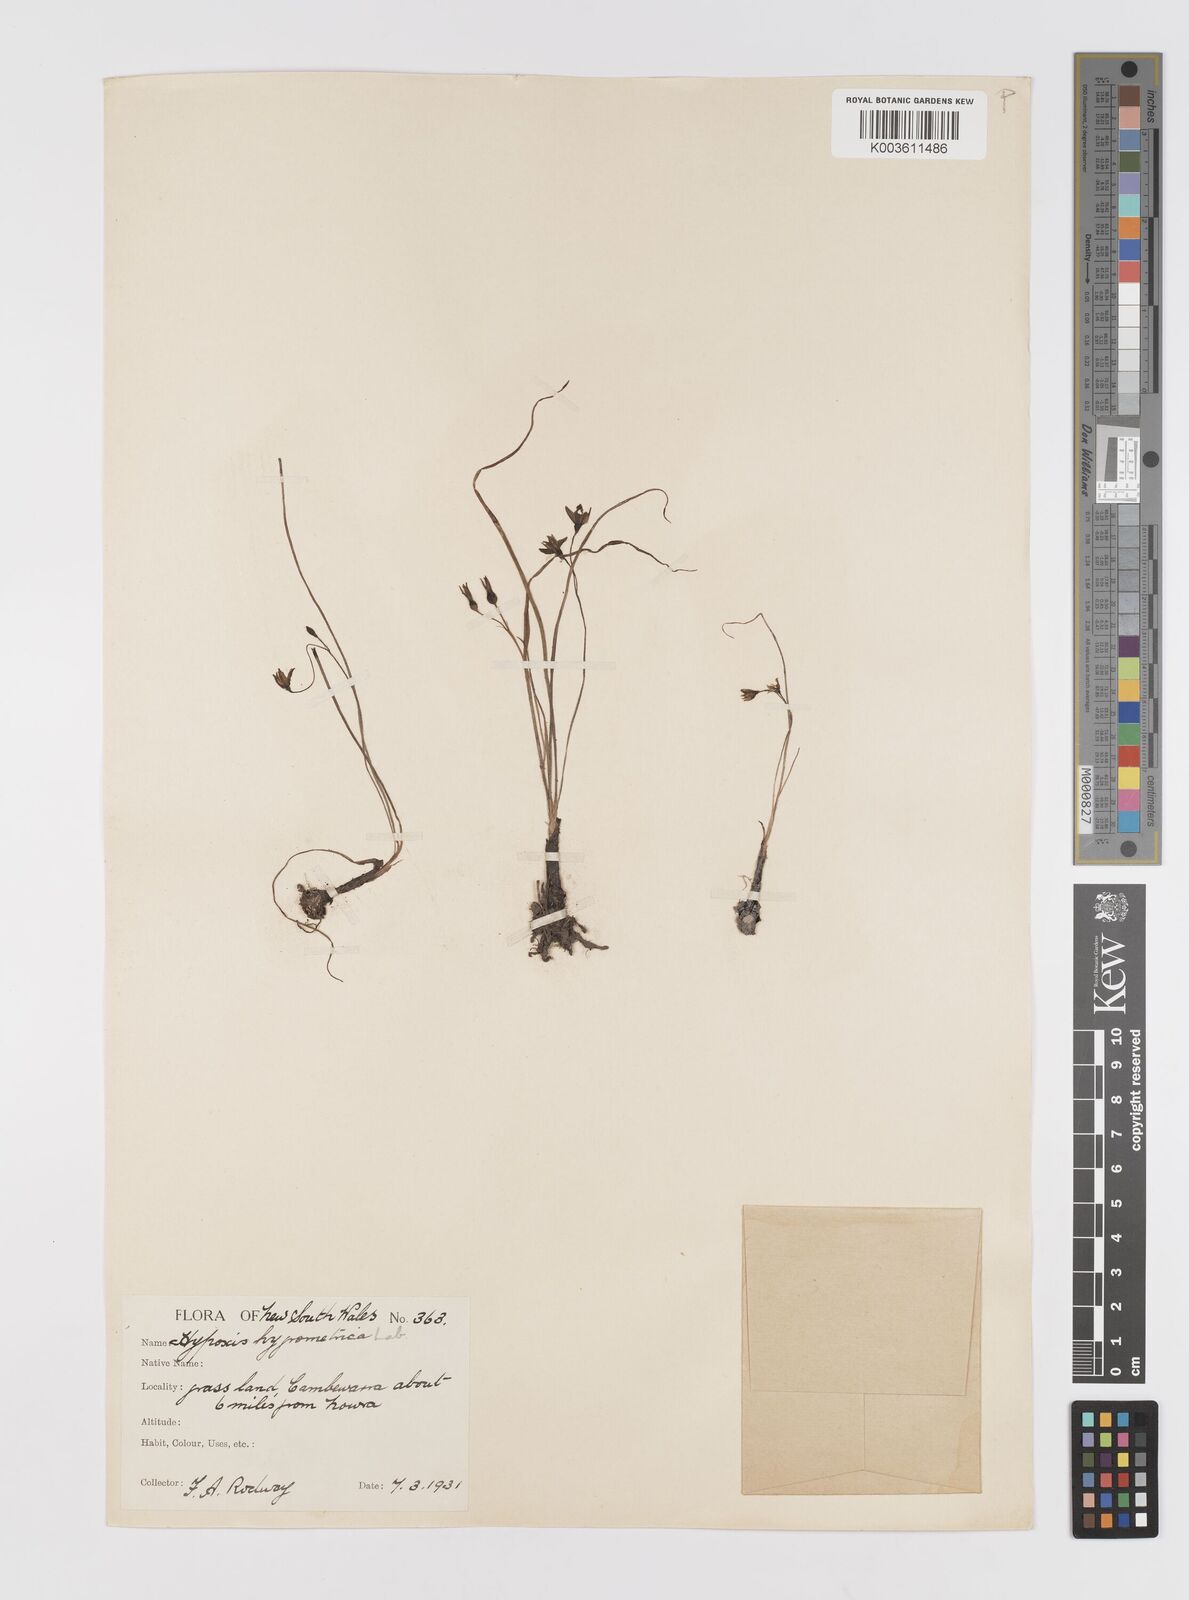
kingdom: Plantae
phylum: Tracheophyta
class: Liliopsida
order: Asparagales
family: Hypoxidaceae
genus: Hypoxis
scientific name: Hypoxis hygrometrica
